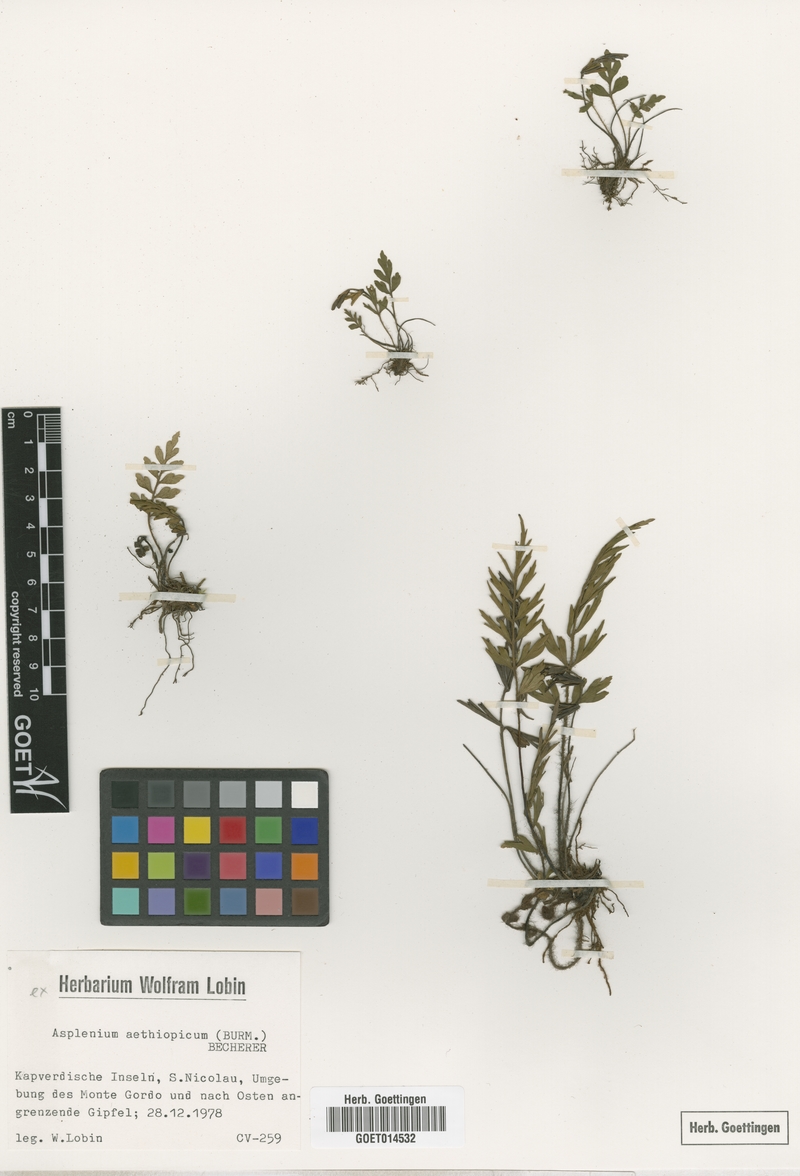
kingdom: Plantae
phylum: Tracheophyta
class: Polypodiopsida
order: Polypodiales
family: Aspleniaceae
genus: Asplenium
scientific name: Asplenium aethiopicum
